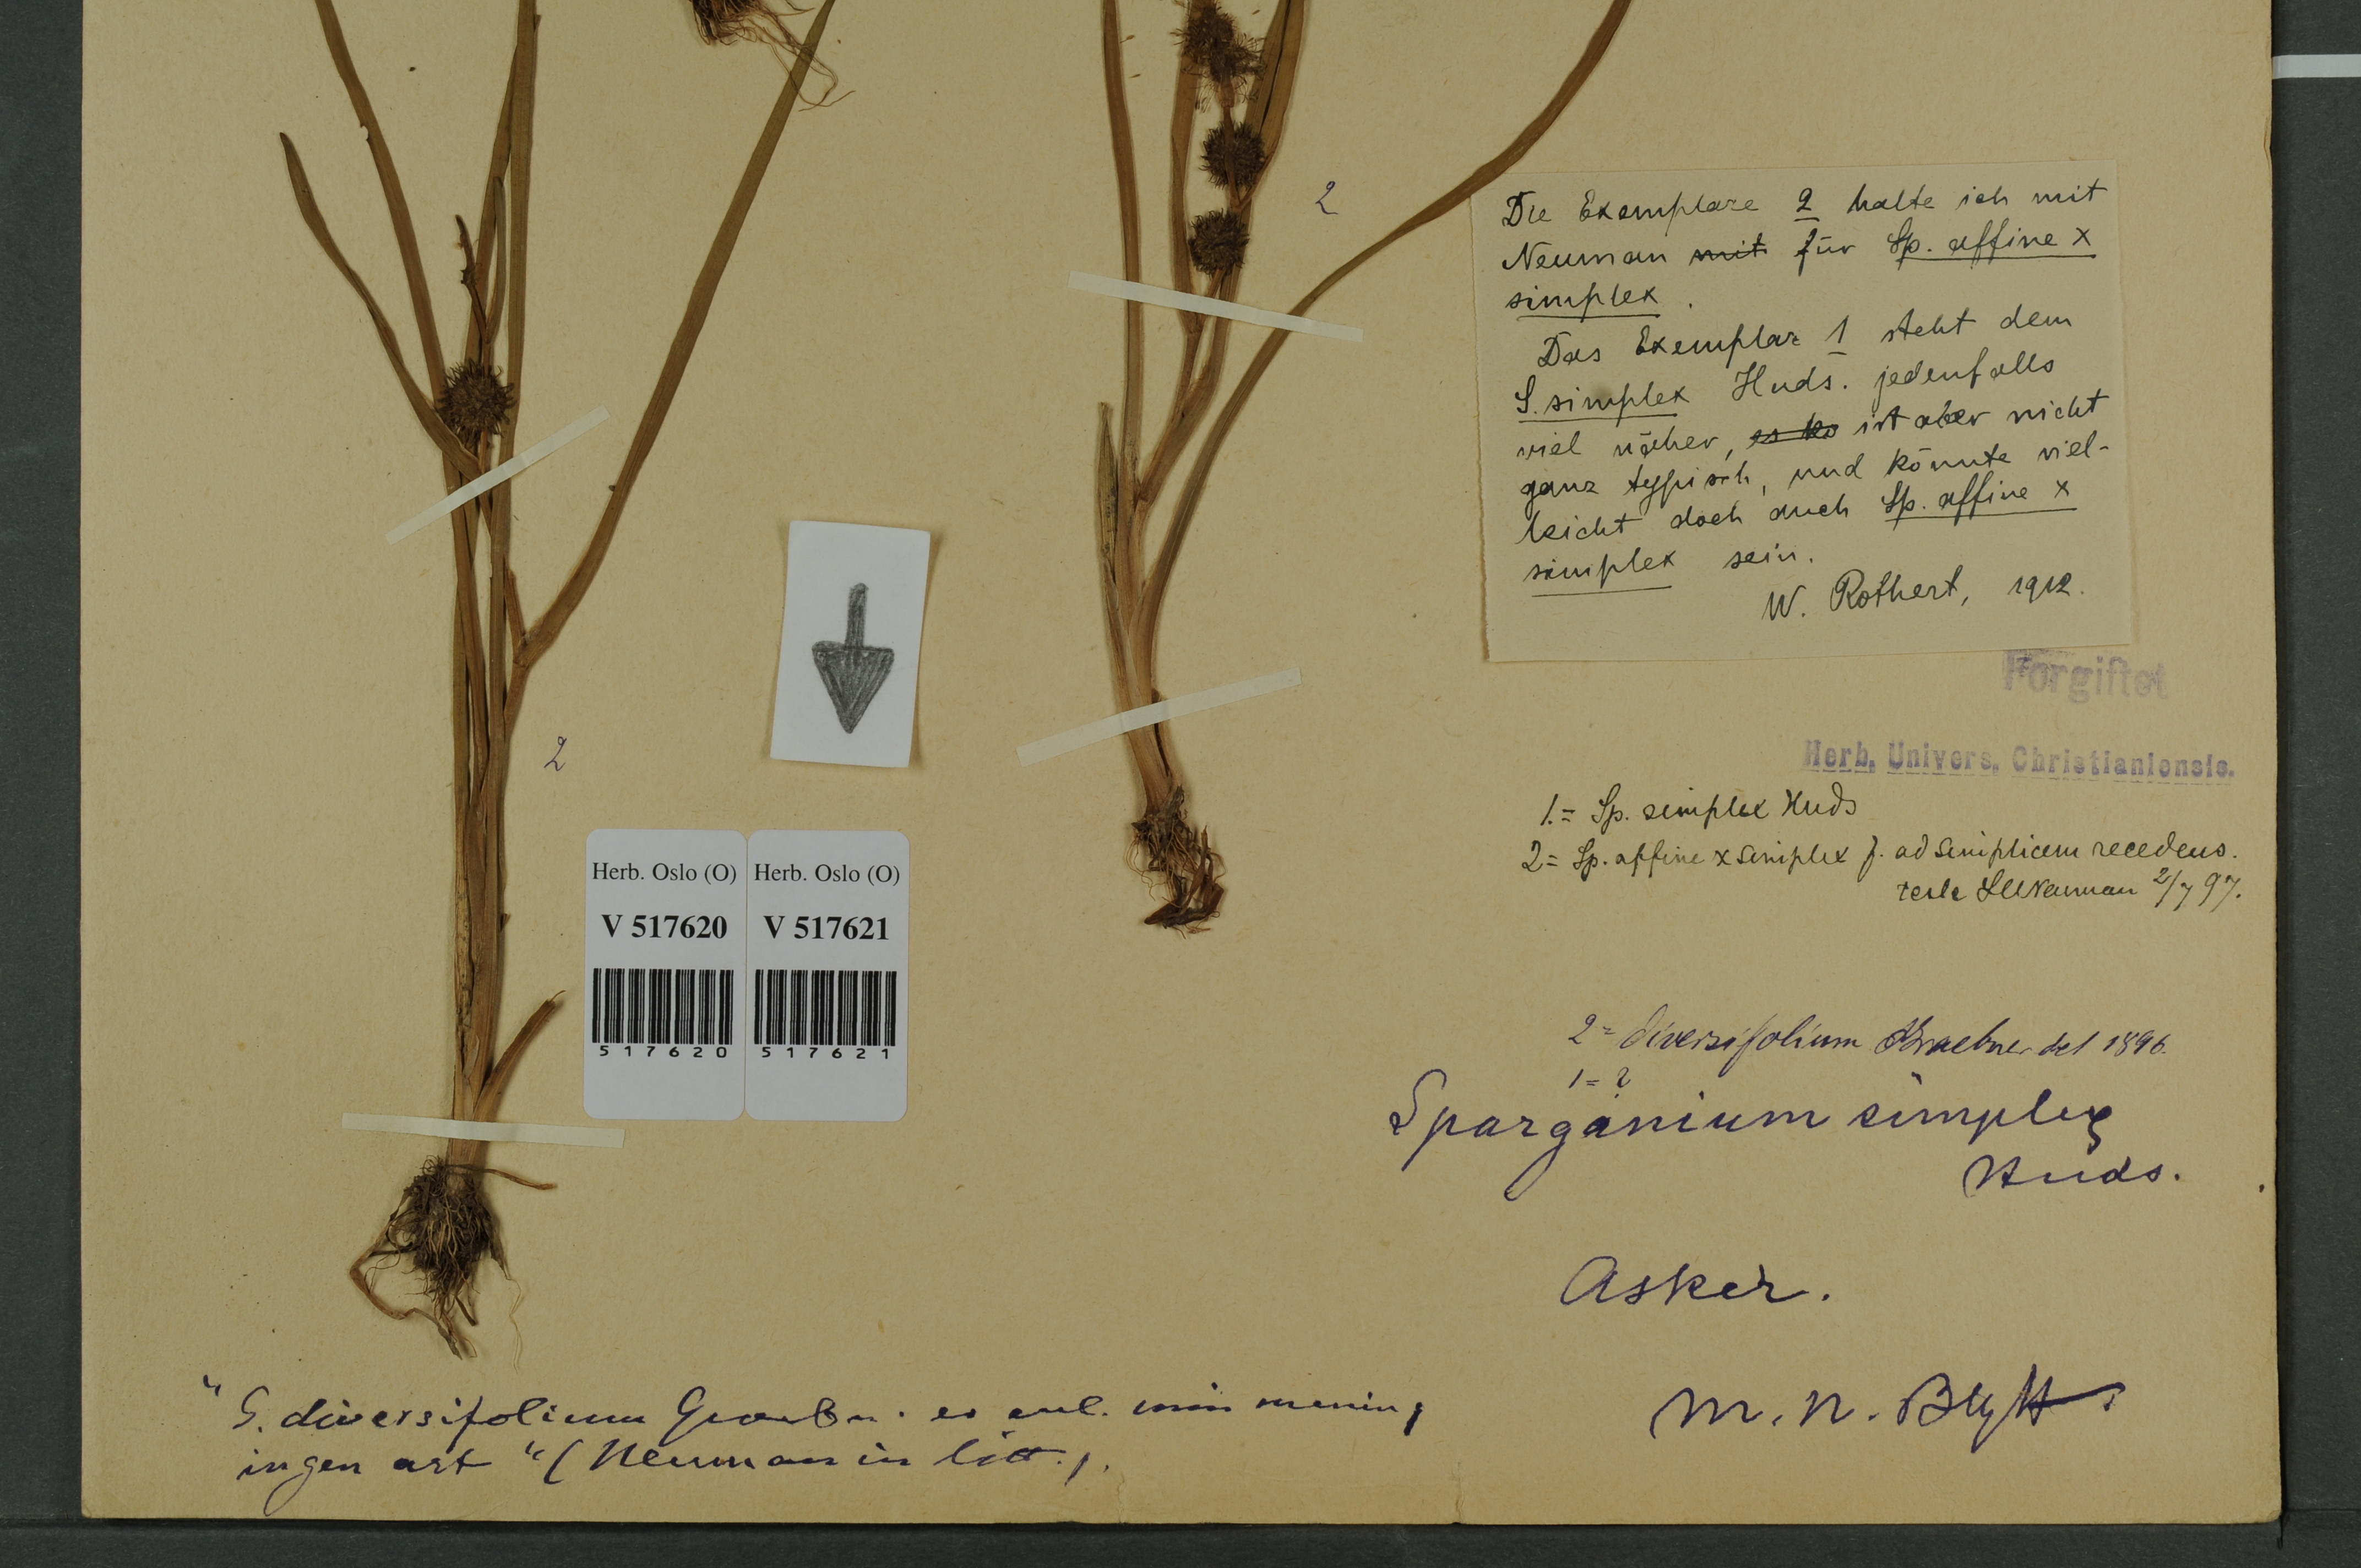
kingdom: Plantae
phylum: Tracheophyta
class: Liliopsida
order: Poales
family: Typhaceae
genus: Sparganium
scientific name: Sparganium
